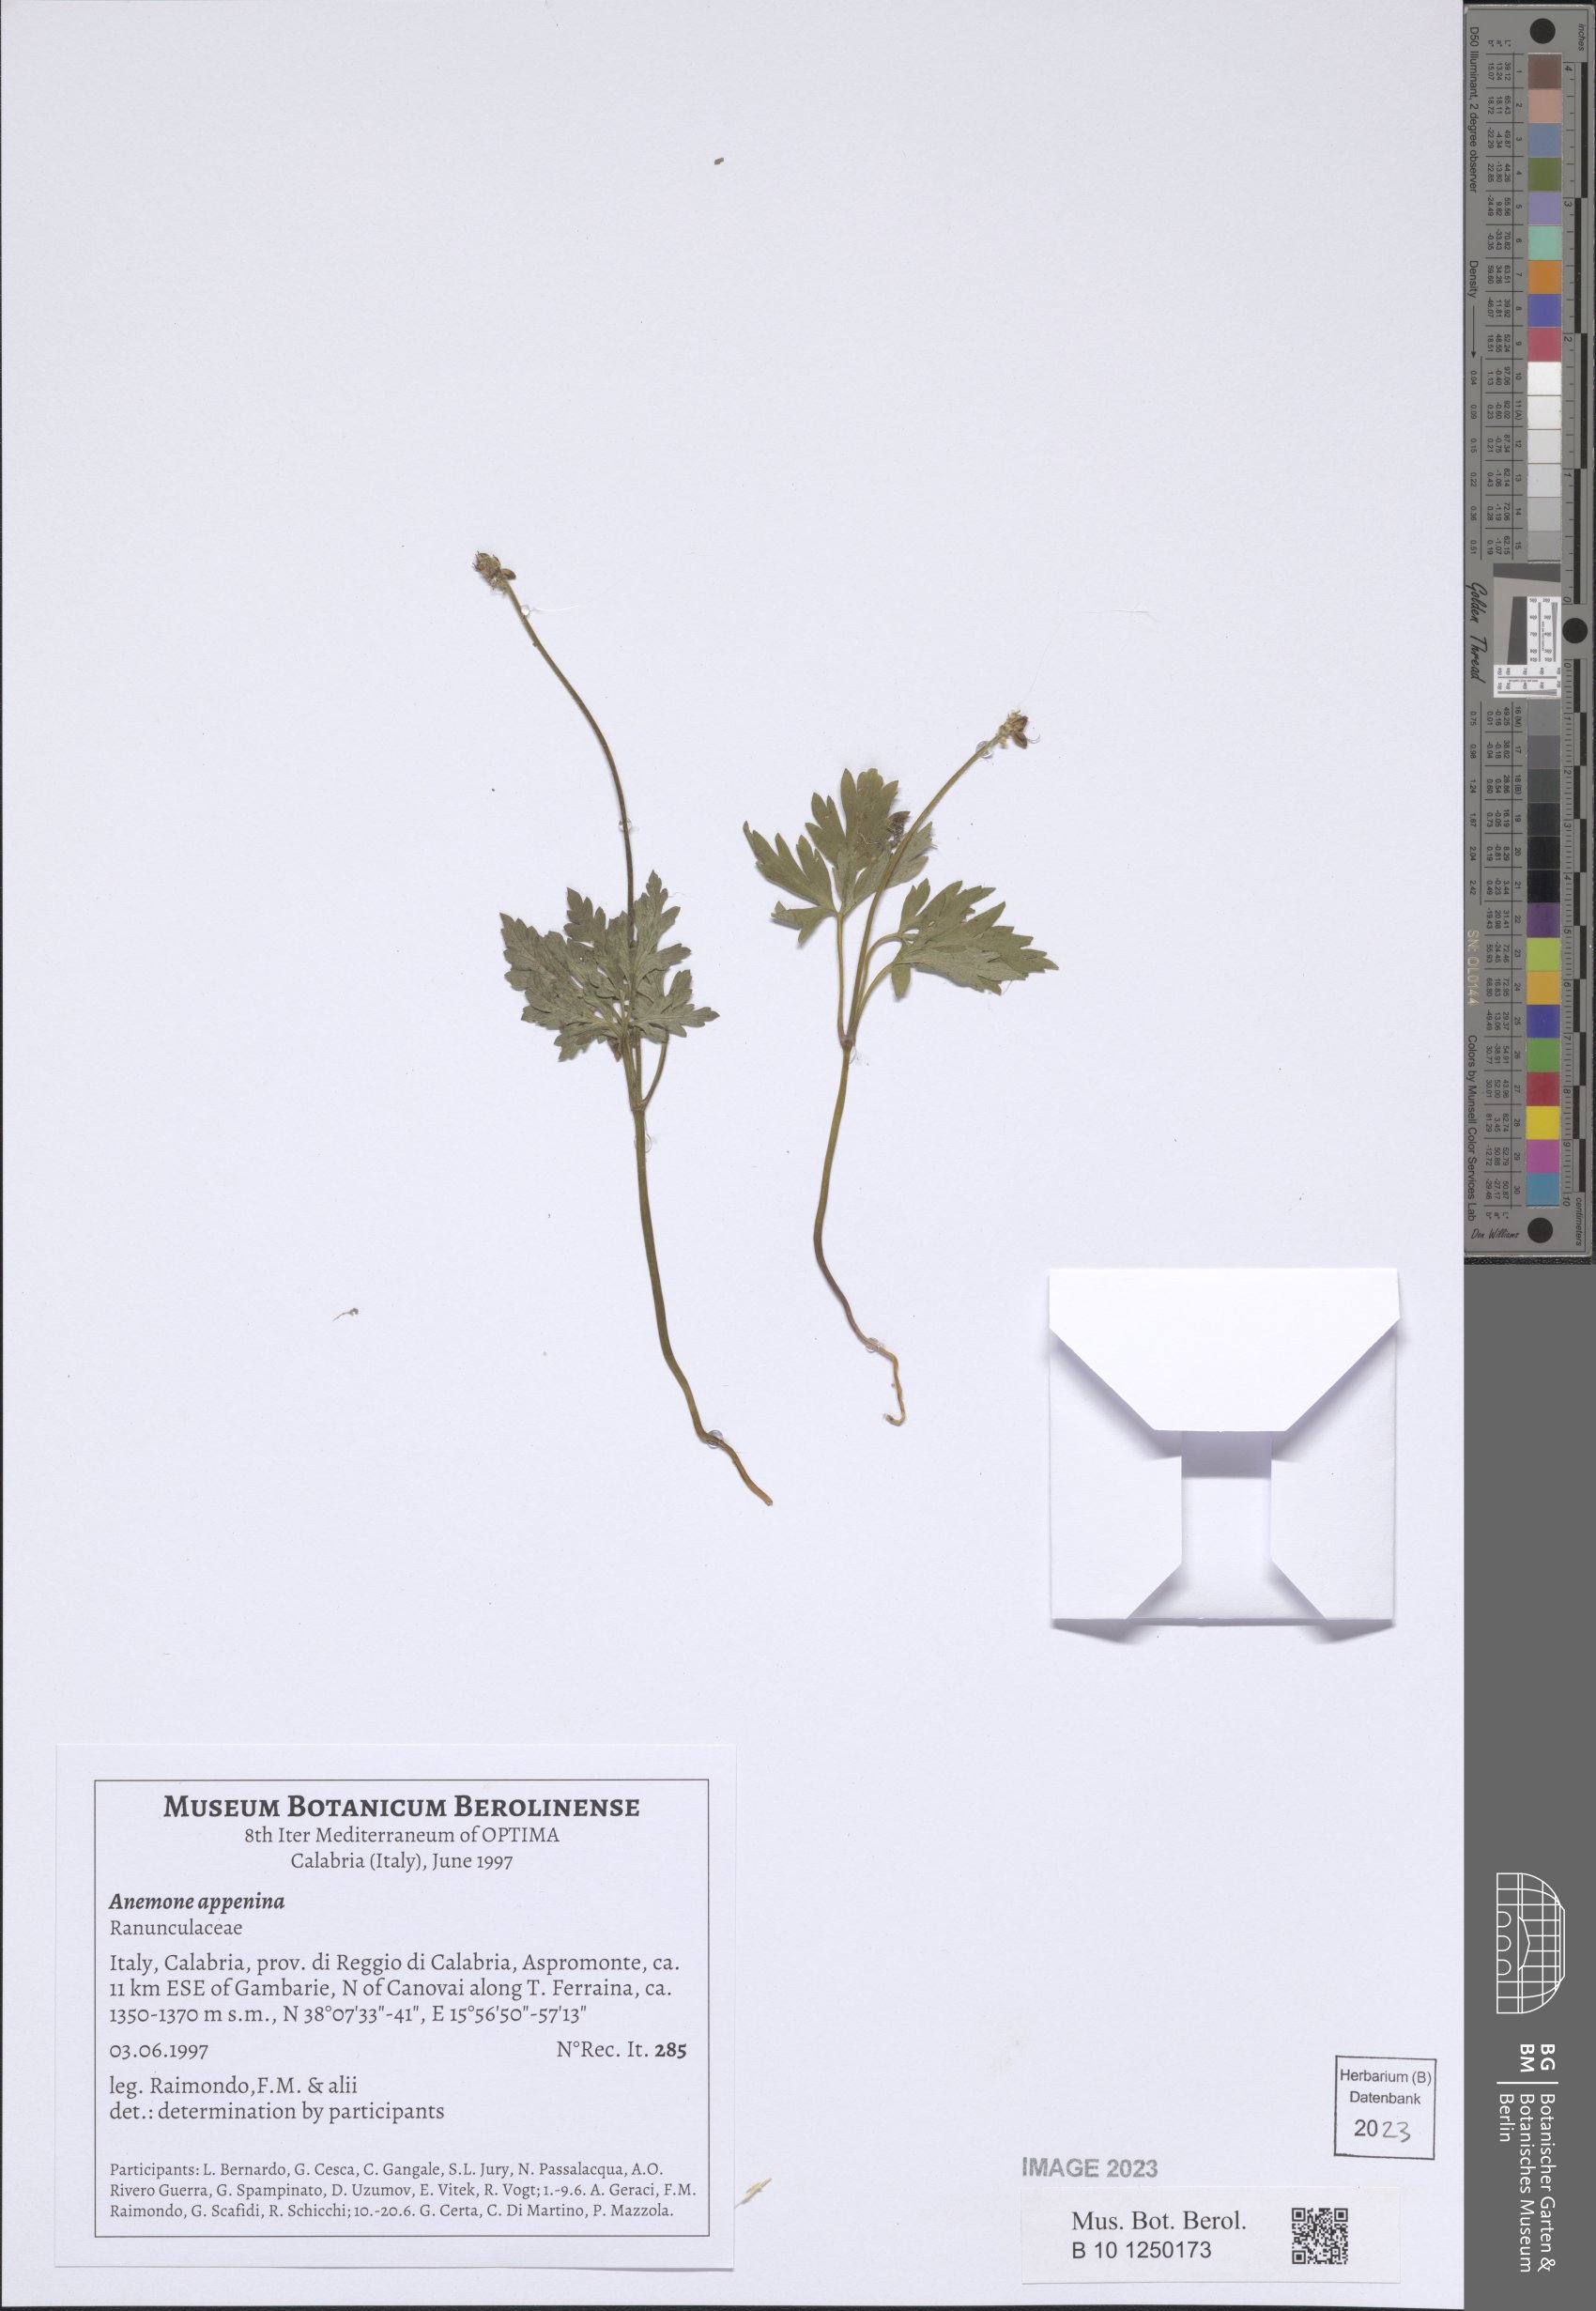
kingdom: Plantae
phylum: Tracheophyta
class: Magnoliopsida
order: Ranunculales
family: Ranunculaceae
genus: Anemone
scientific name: Anemone apennina
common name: Blue anemone
